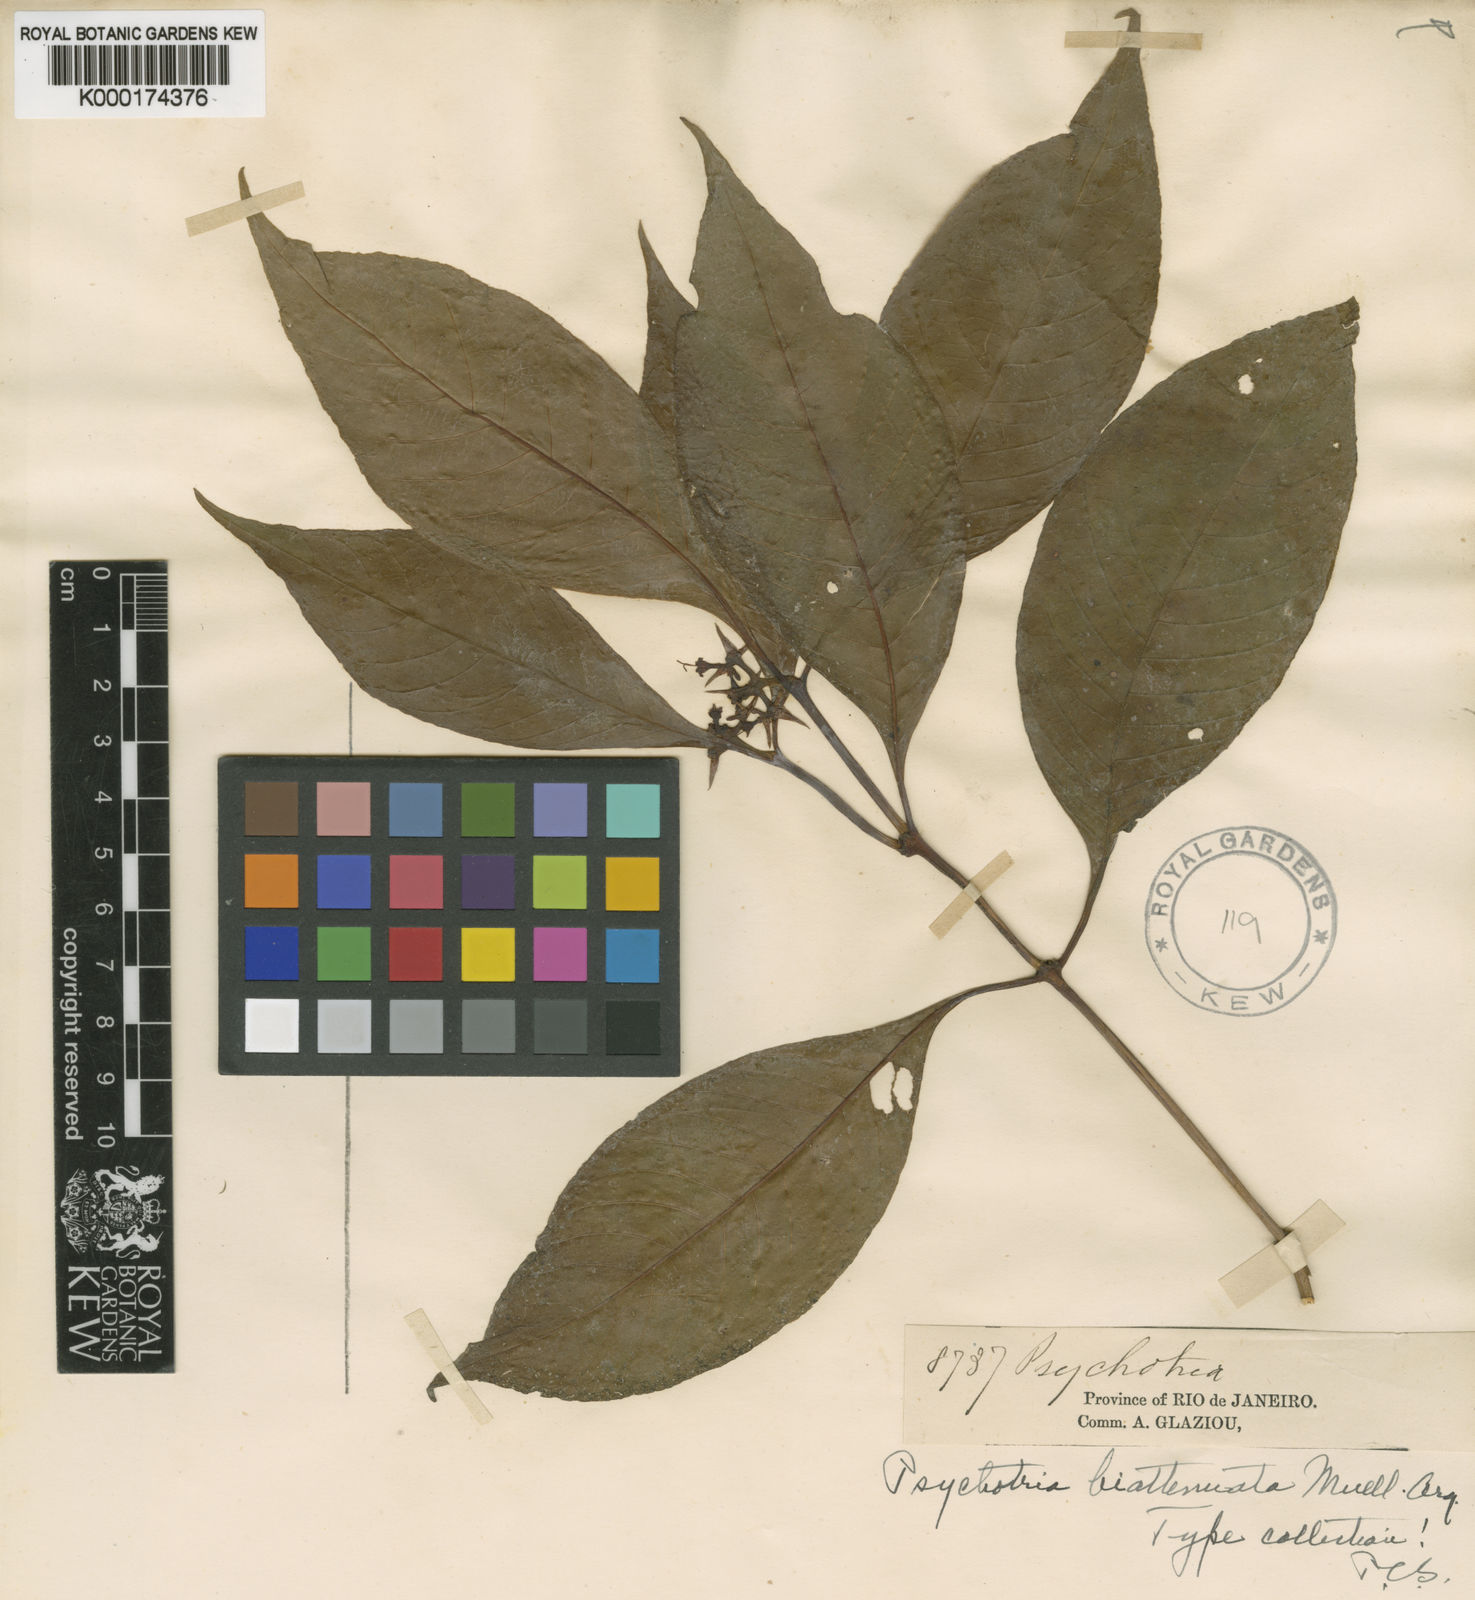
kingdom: Plantae
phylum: Tracheophyta
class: Magnoliopsida
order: Gentianales
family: Rubiaceae
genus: Psychotria
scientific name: Psychotria
